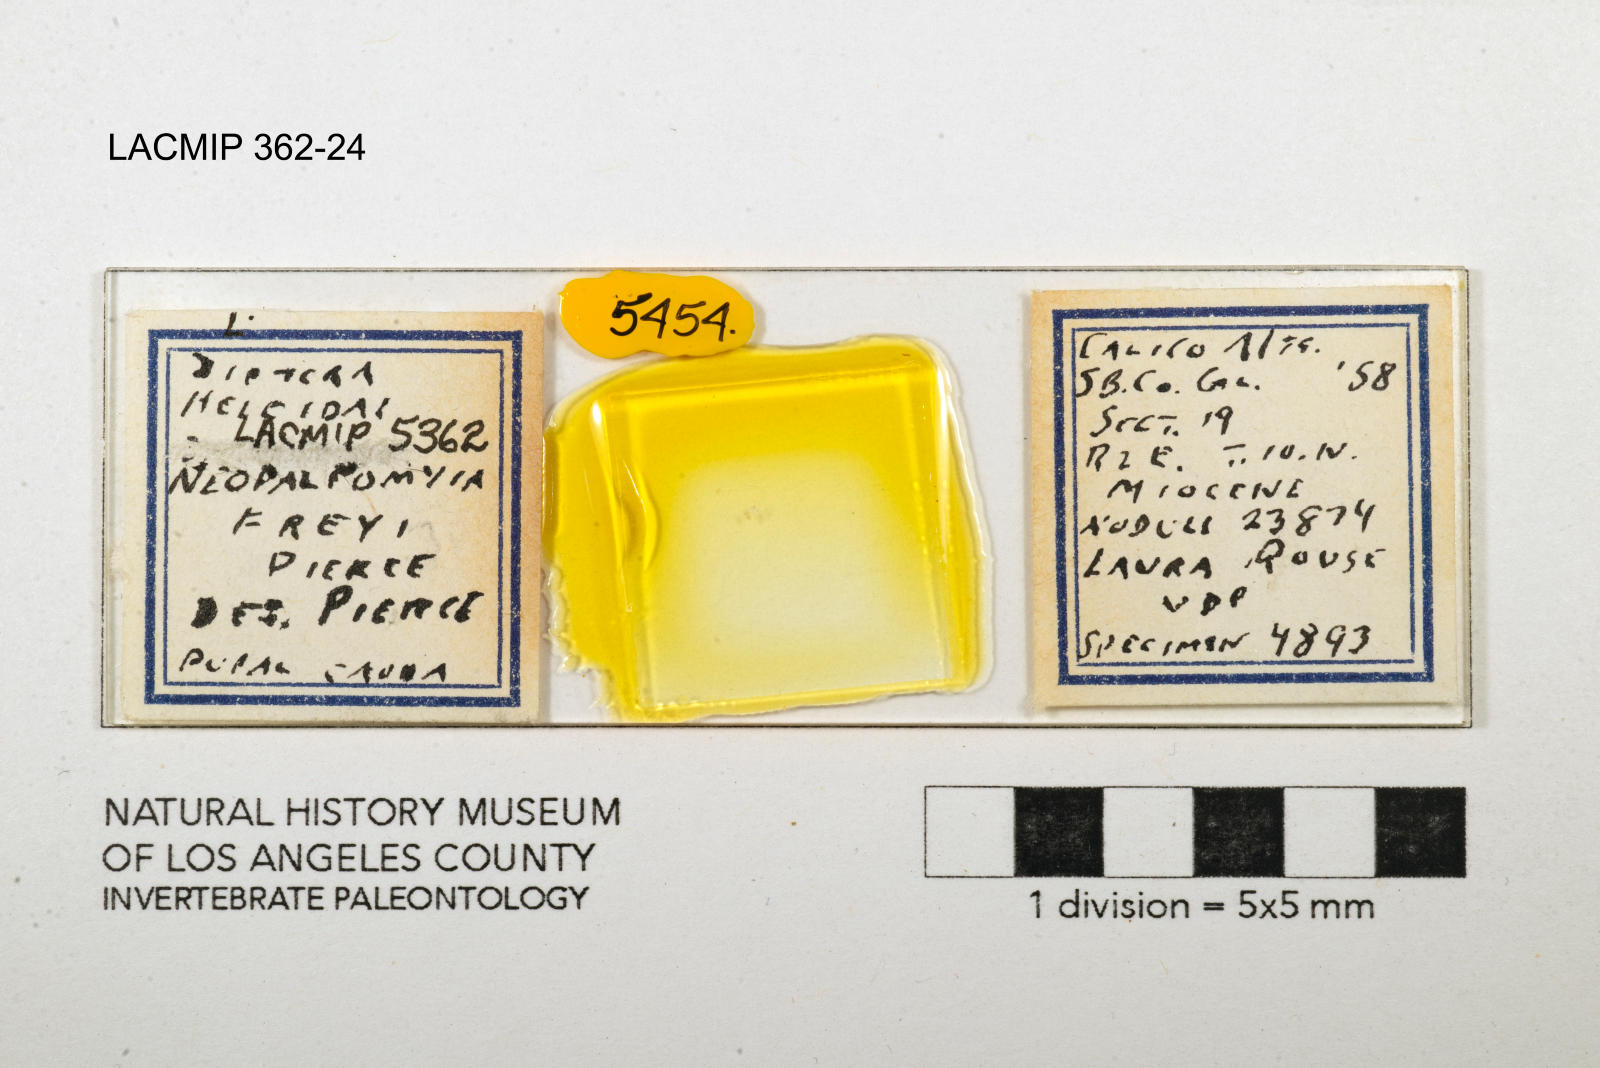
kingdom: Animalia
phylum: Arthropoda
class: Insecta
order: Diptera
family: Ceratopogonidae
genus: Palpomyia
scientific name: Palpomyia freyi
